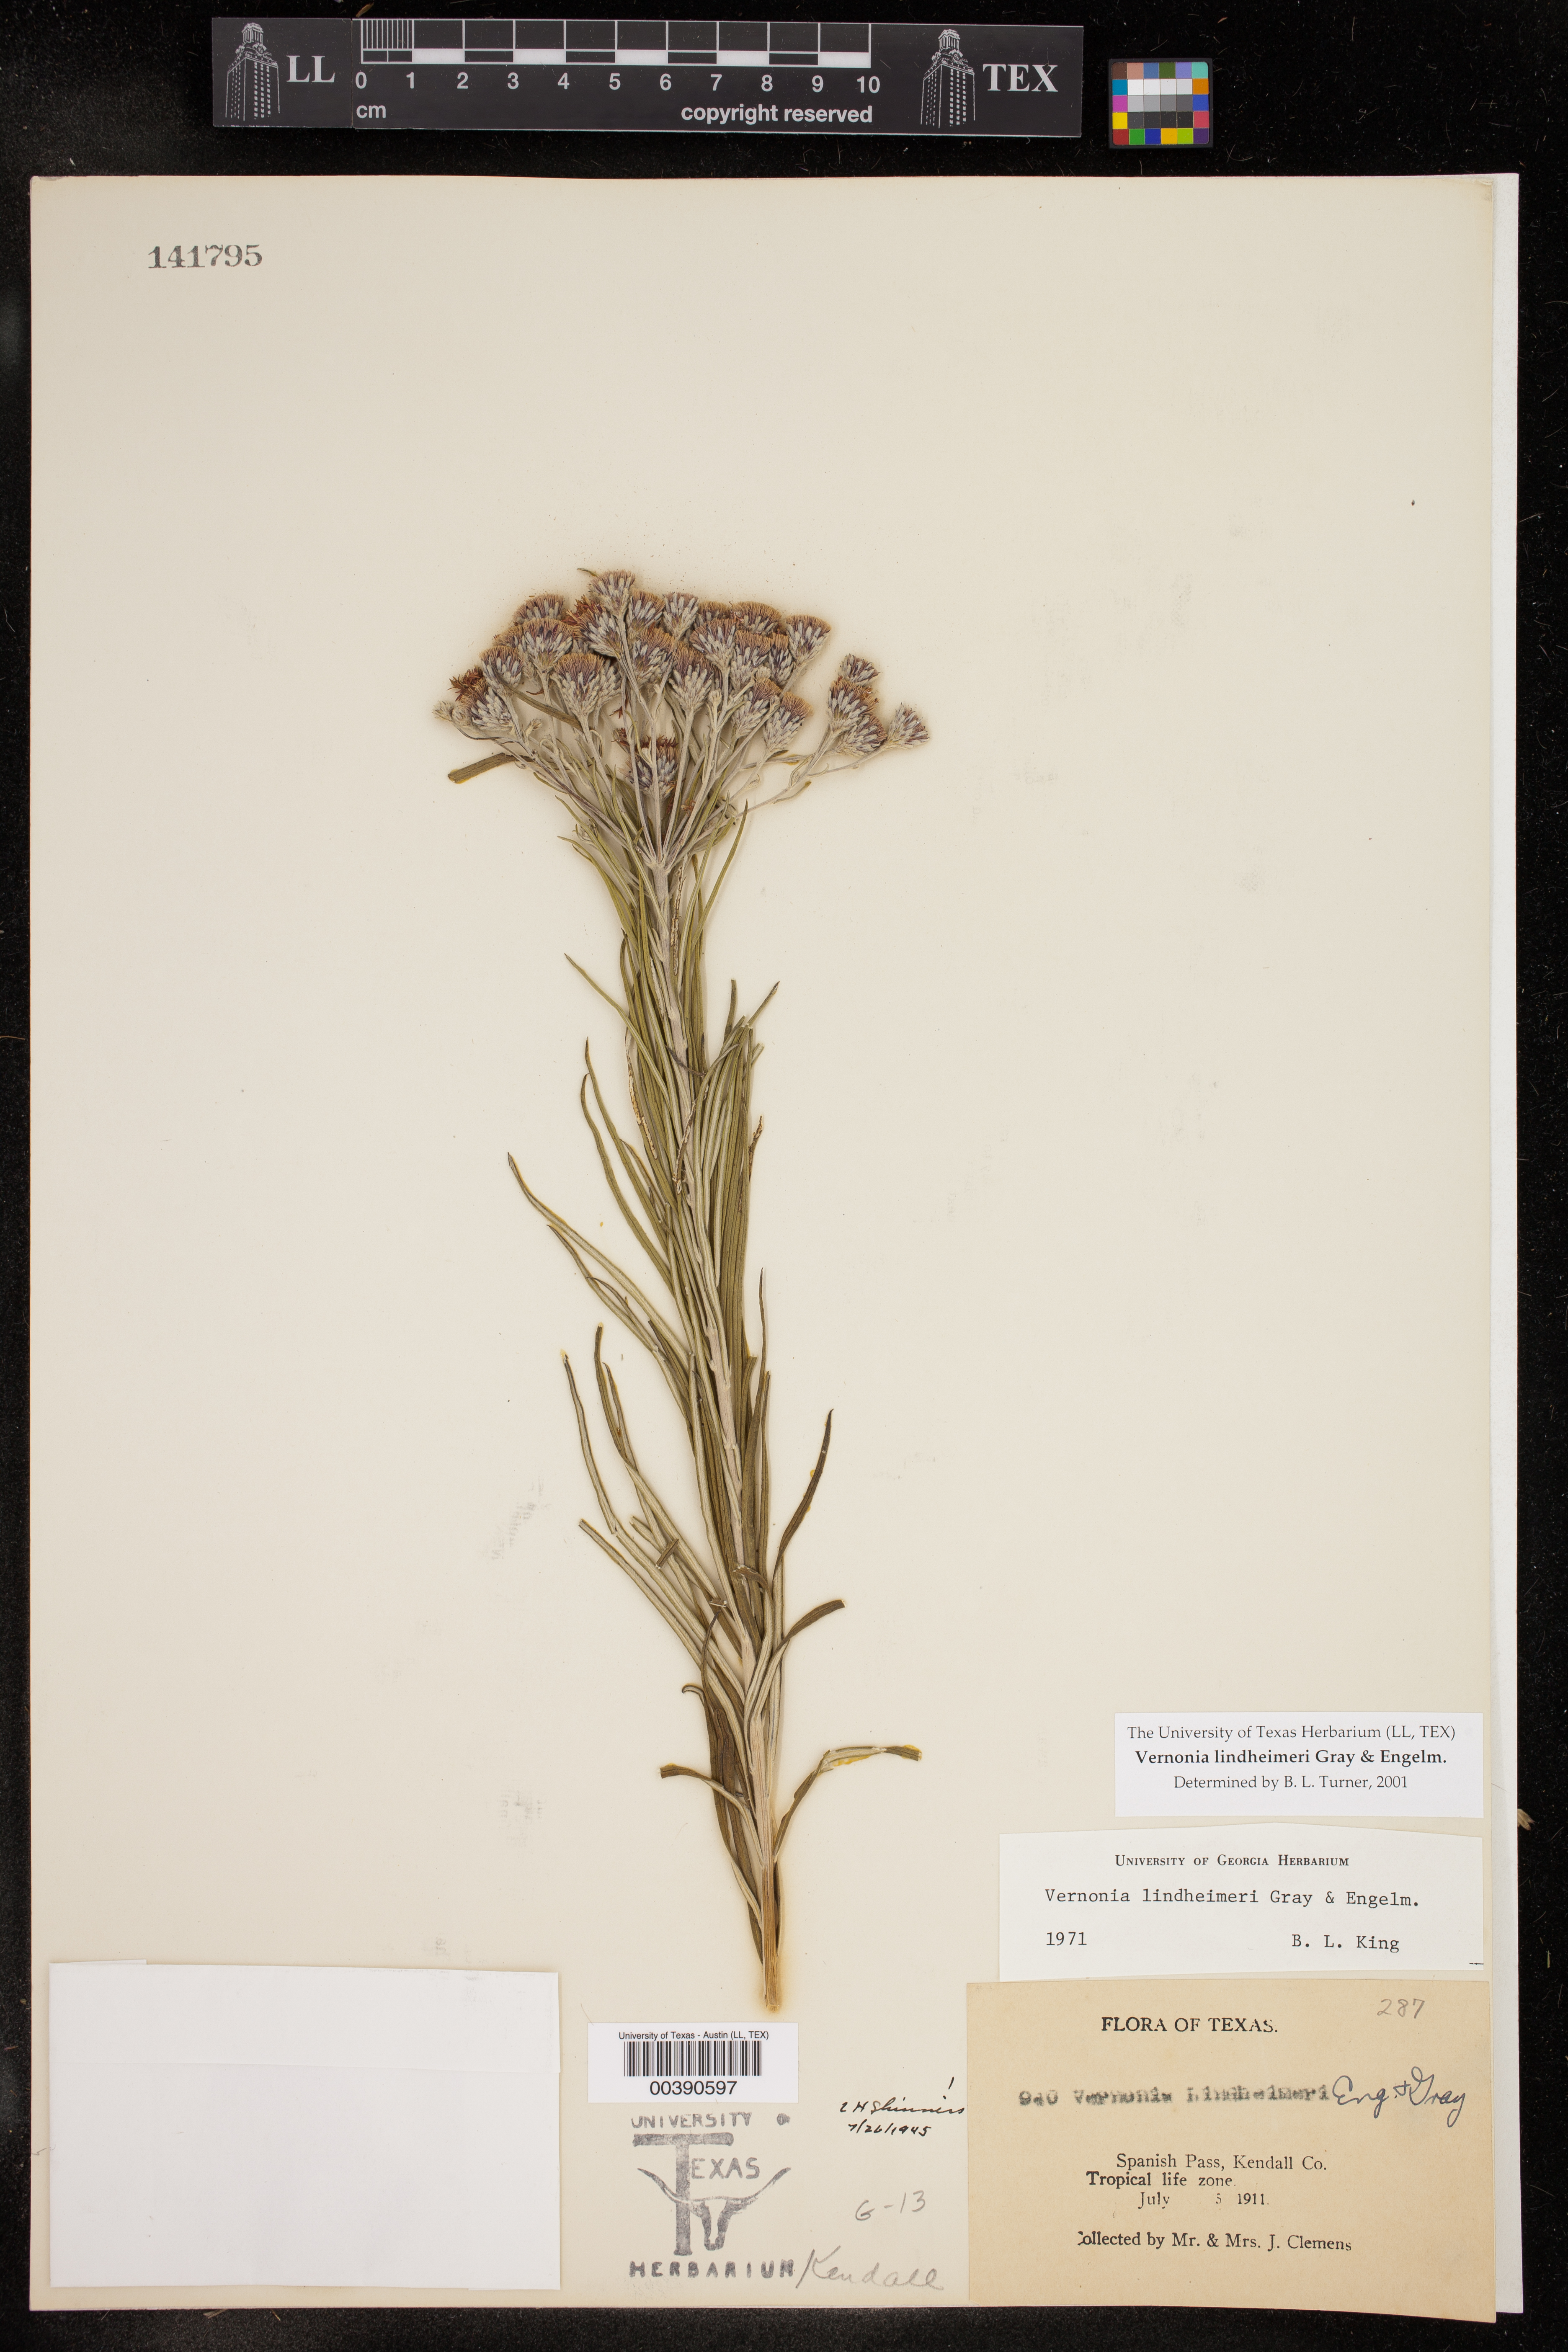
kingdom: Plantae
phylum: Tracheophyta
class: Magnoliopsida
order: Asterales
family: Asteraceae
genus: Vernonia
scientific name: Vernonia lindheimeri
